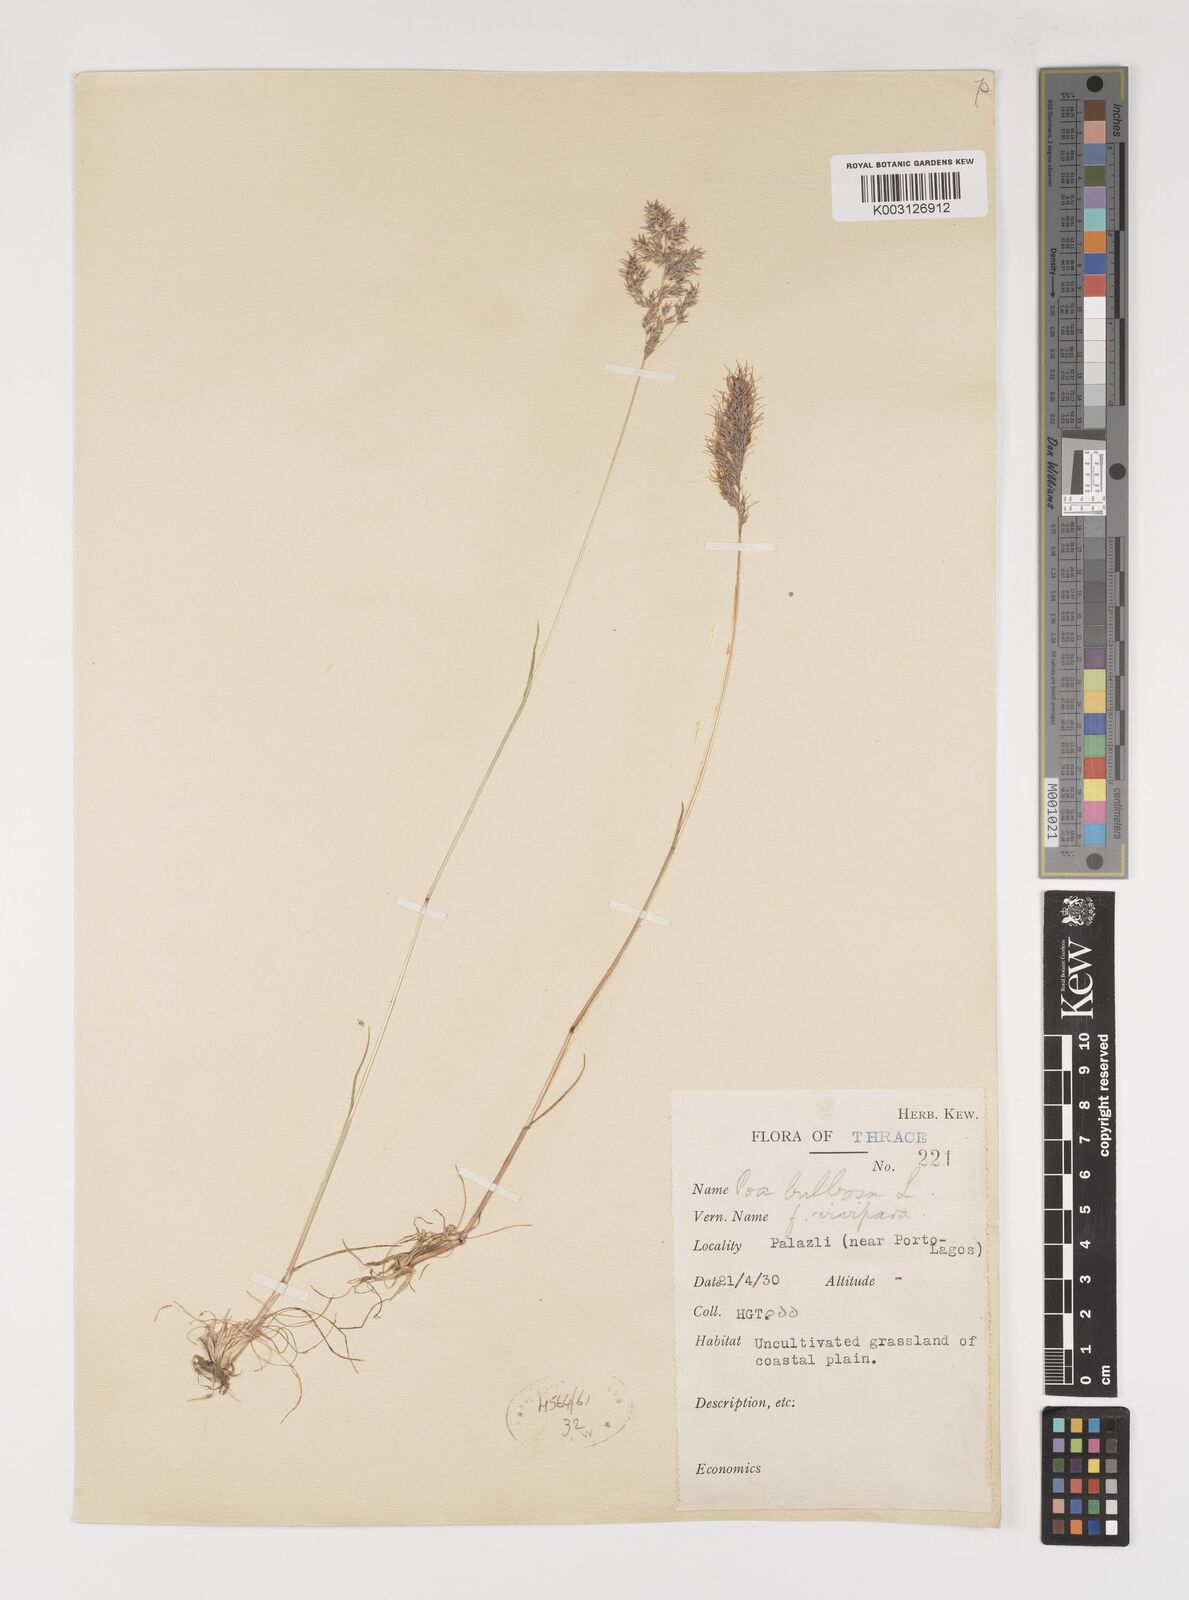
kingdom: Plantae
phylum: Tracheophyta
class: Liliopsida
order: Poales
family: Poaceae
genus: Poa
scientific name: Poa bulbosa
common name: Bulbous bluegrass
